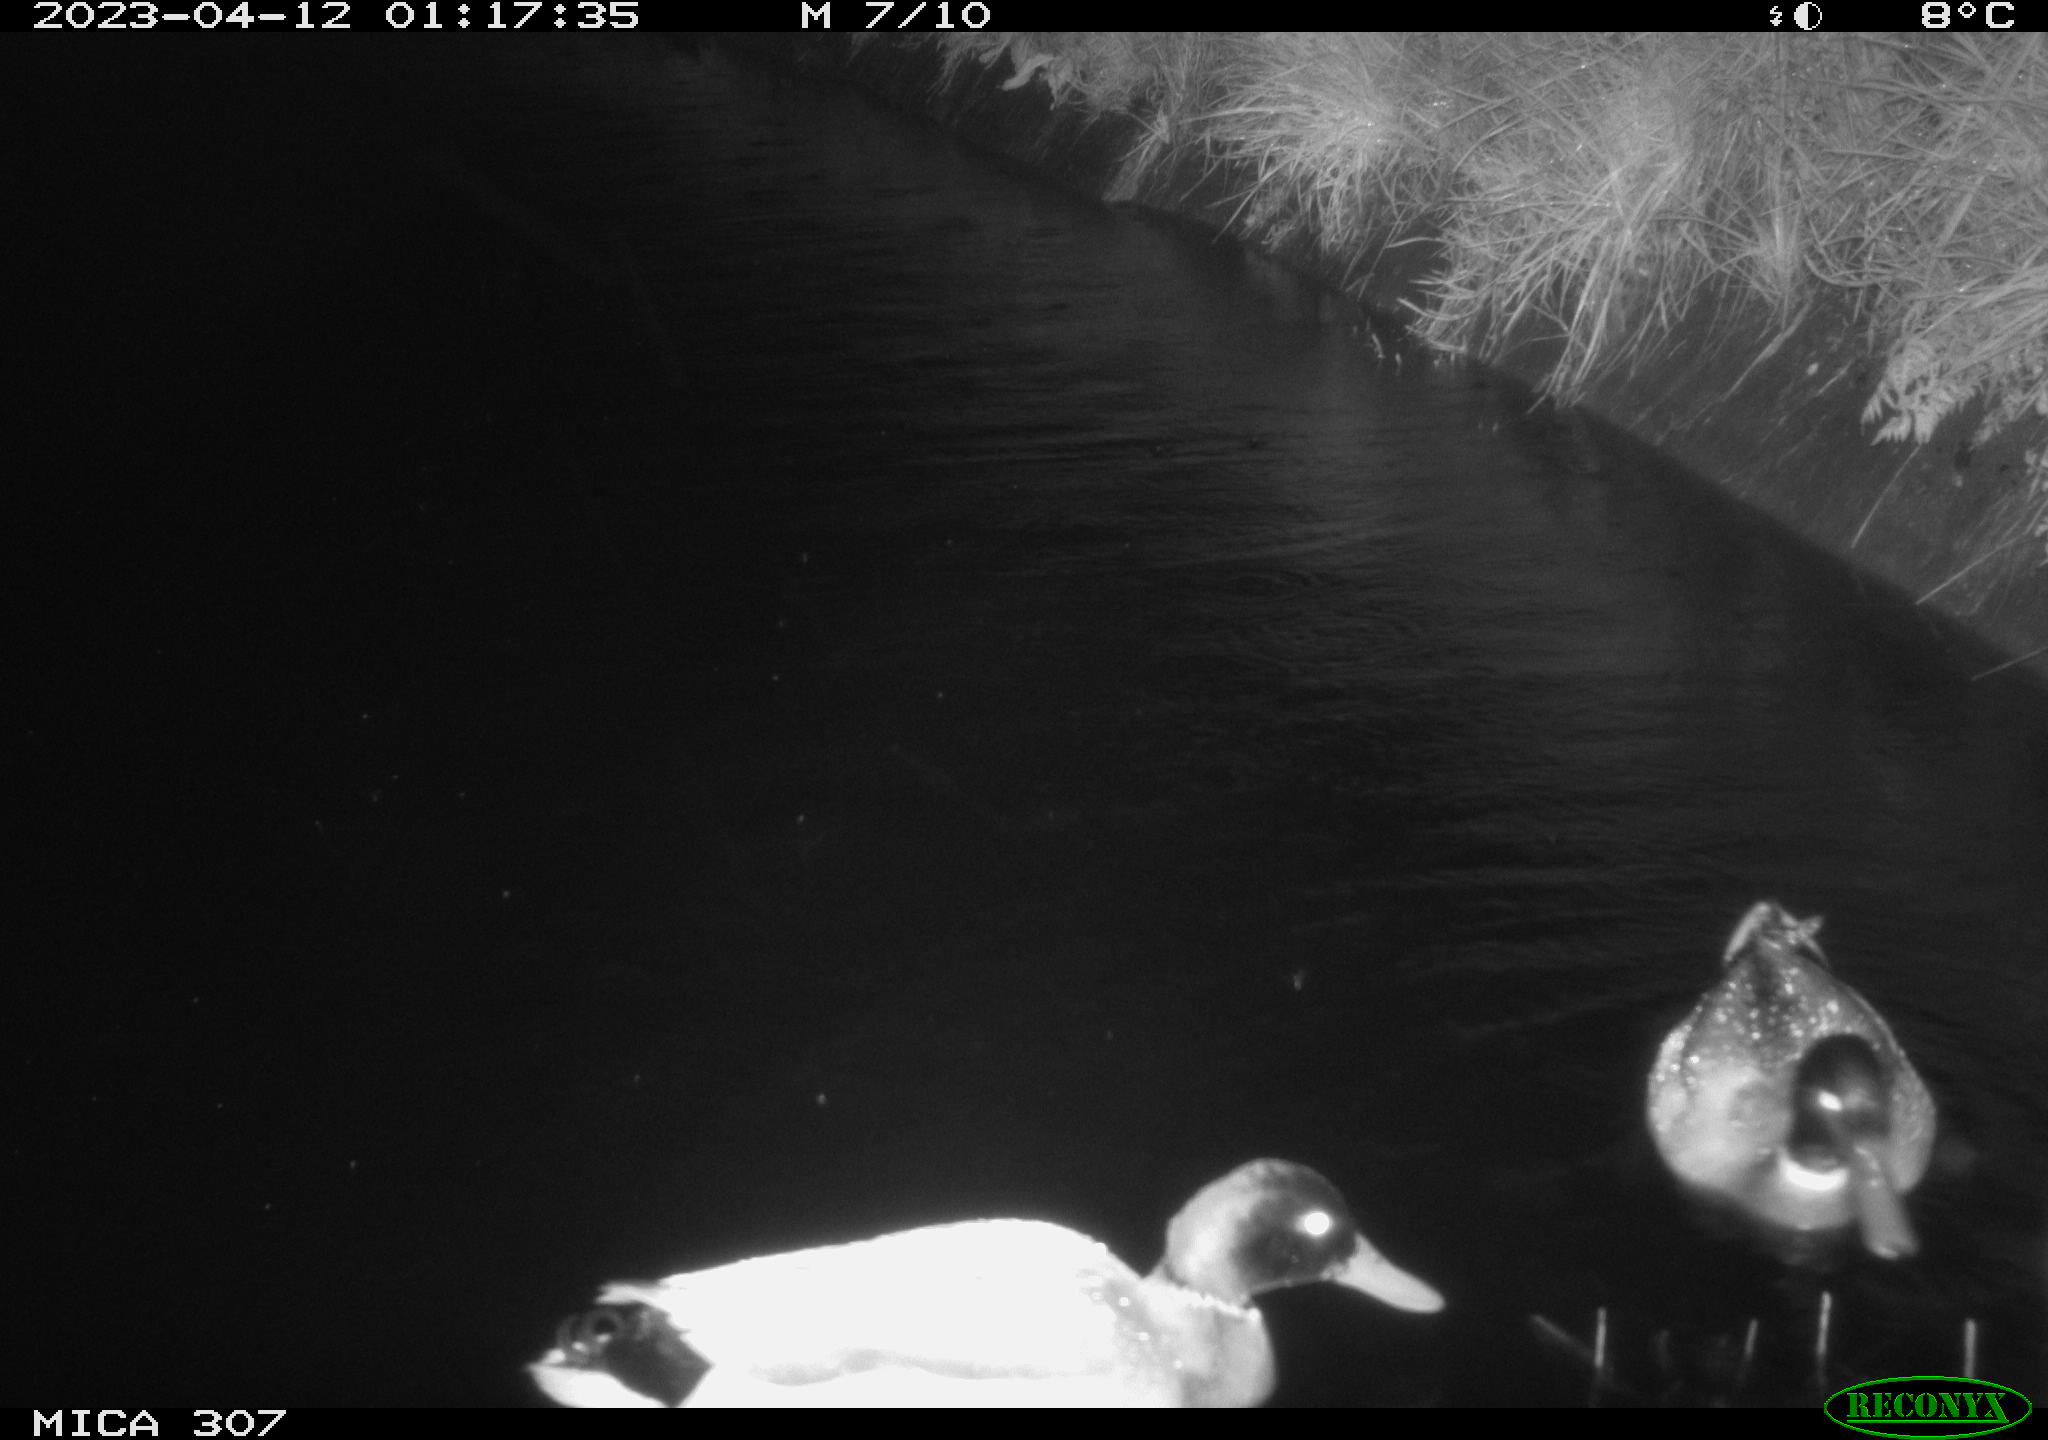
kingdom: Animalia
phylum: Chordata
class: Aves
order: Anseriformes
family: Anatidae
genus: Anas
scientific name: Anas
